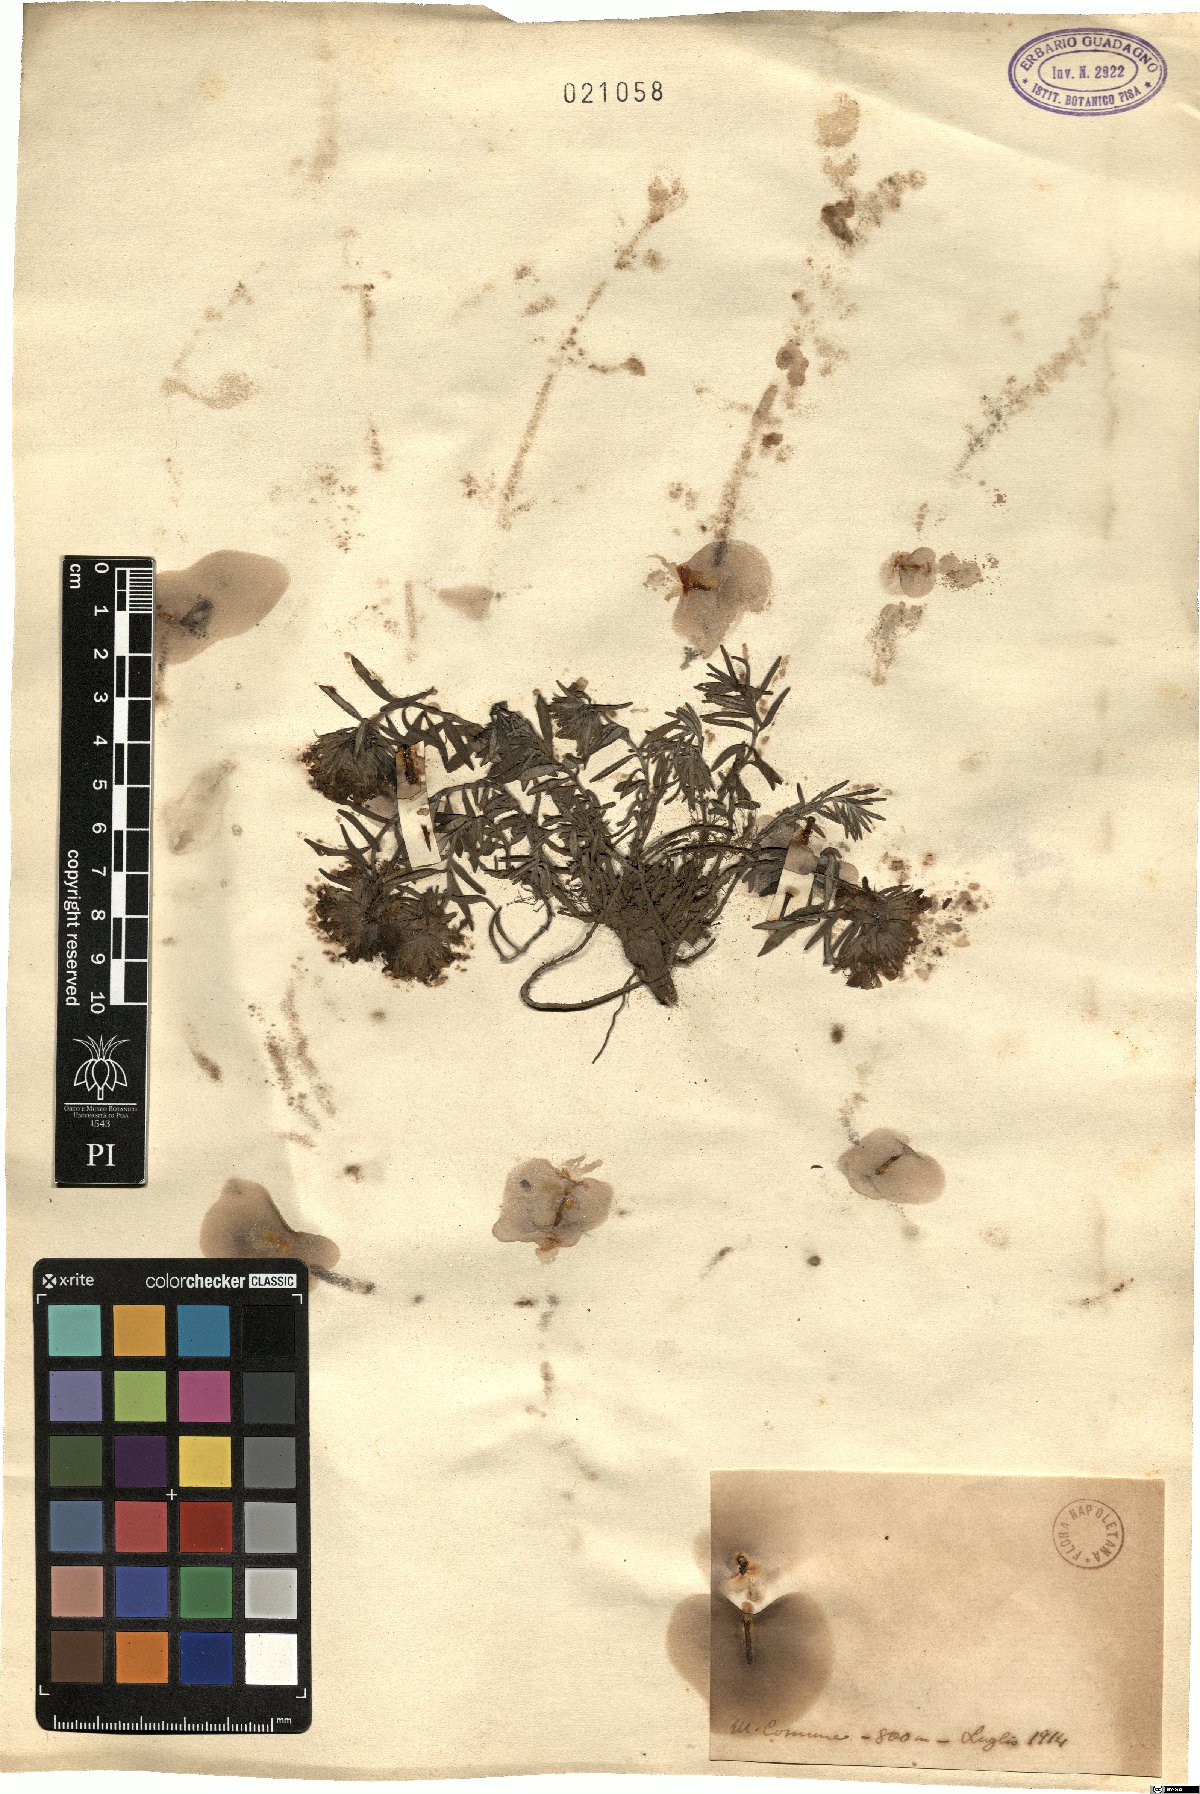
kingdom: Plantae
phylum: Tracheophyta
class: Magnoliopsida
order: Lamiales
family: Lamiaceae
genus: Teucrium
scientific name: Teucrium
